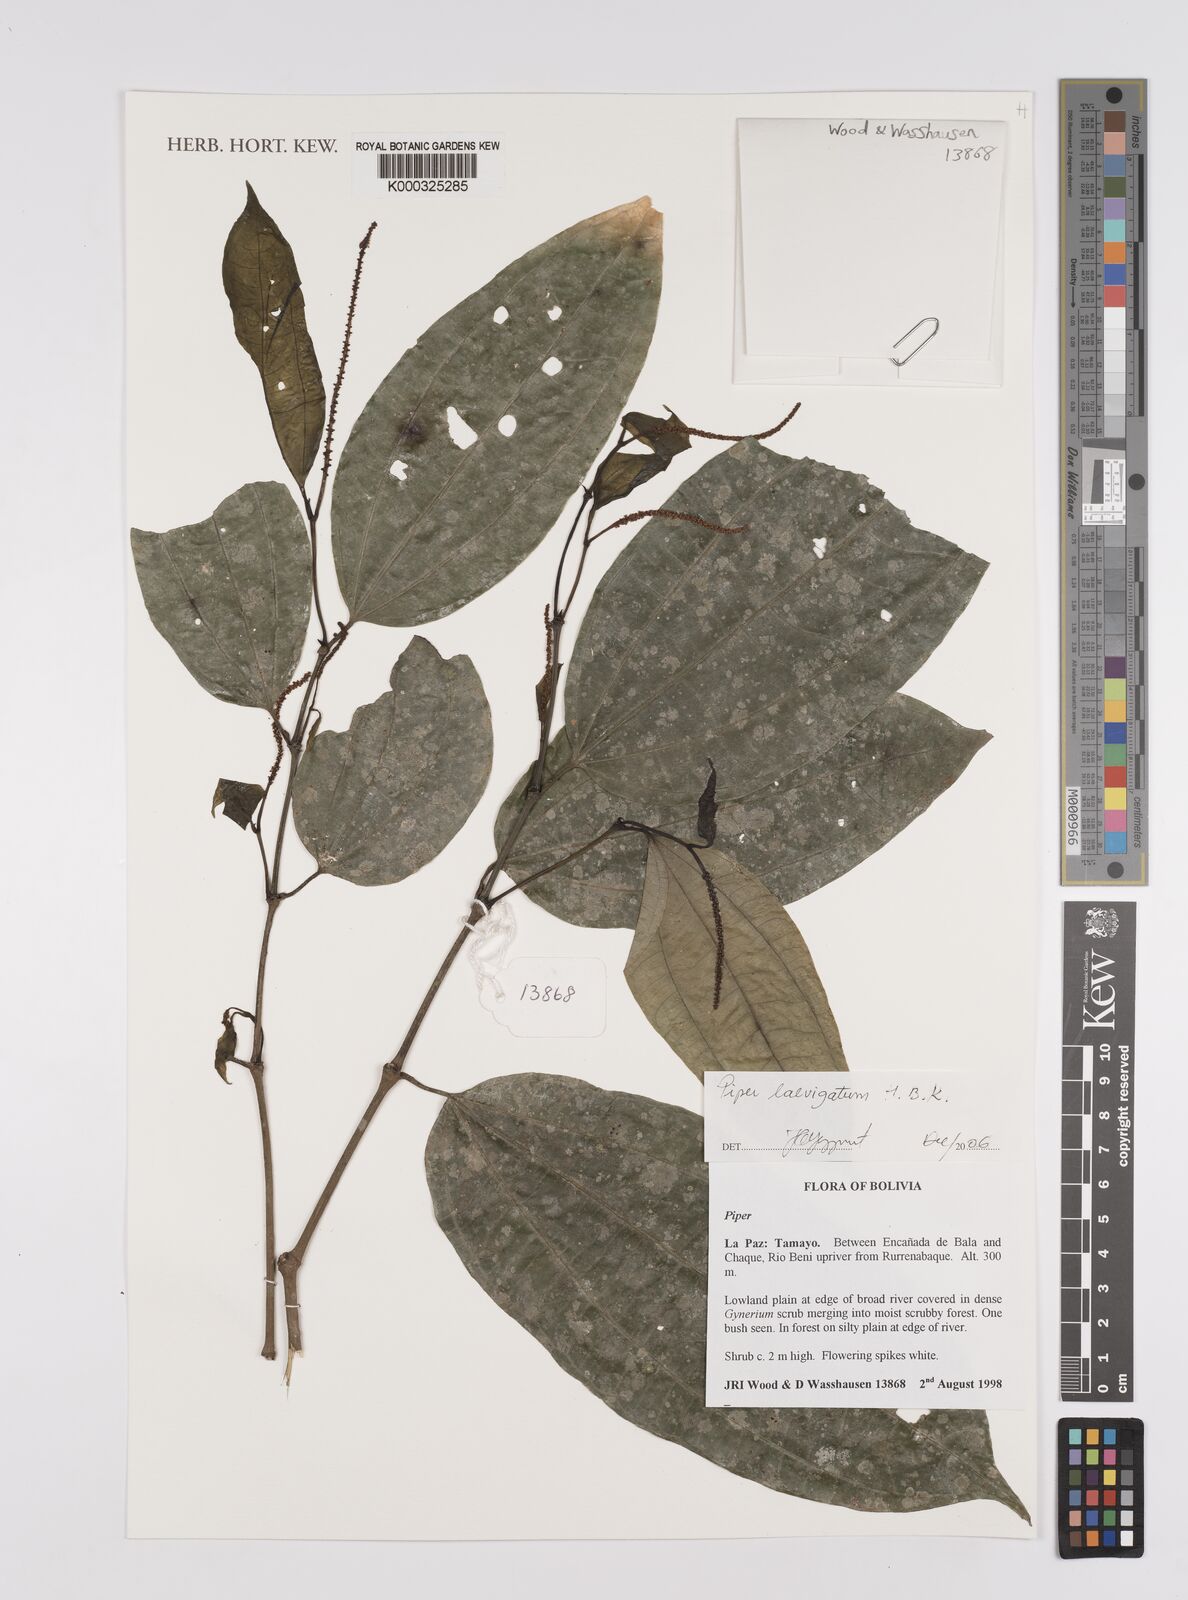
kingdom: Plantae
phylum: Tracheophyta
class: Magnoliopsida
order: Piperales
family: Piperaceae
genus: Piper
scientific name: Piper
